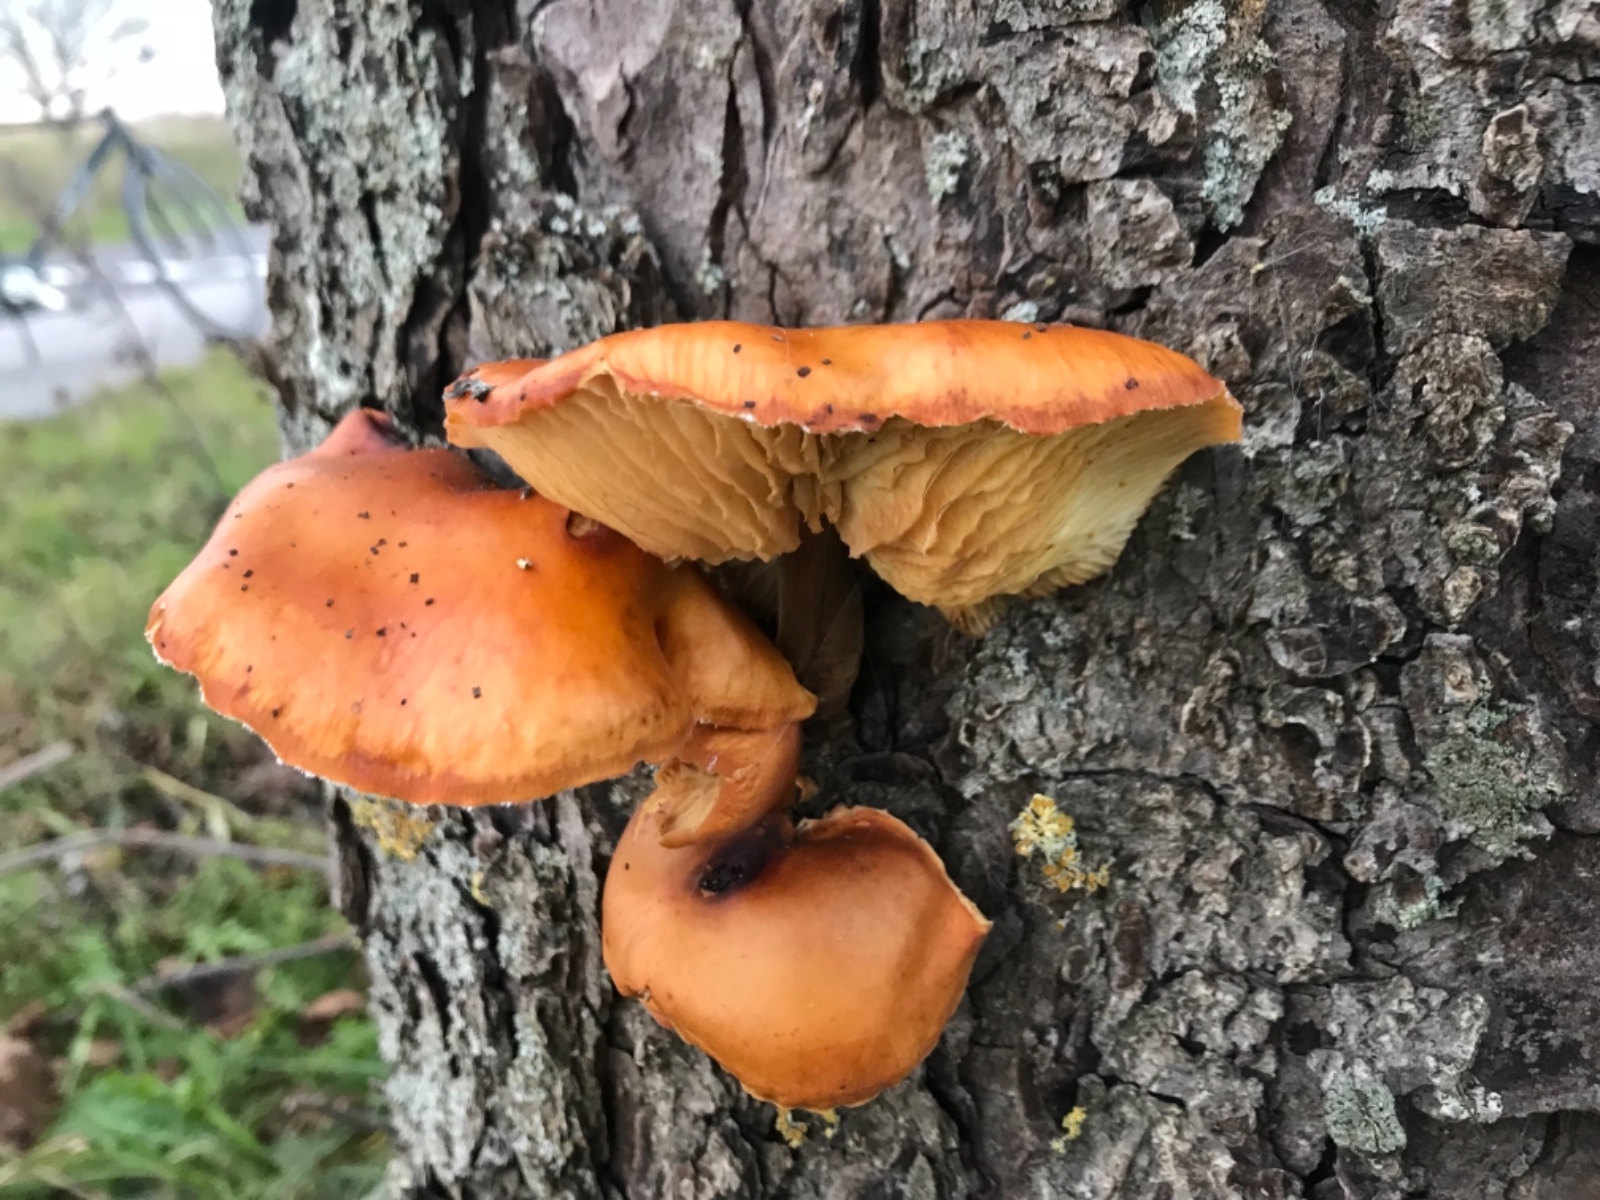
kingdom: Fungi
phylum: Basidiomycota
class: Agaricomycetes
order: Agaricales
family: Physalacriaceae
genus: Flammulina
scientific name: Flammulina velutipes
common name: gul fløjlsfod
